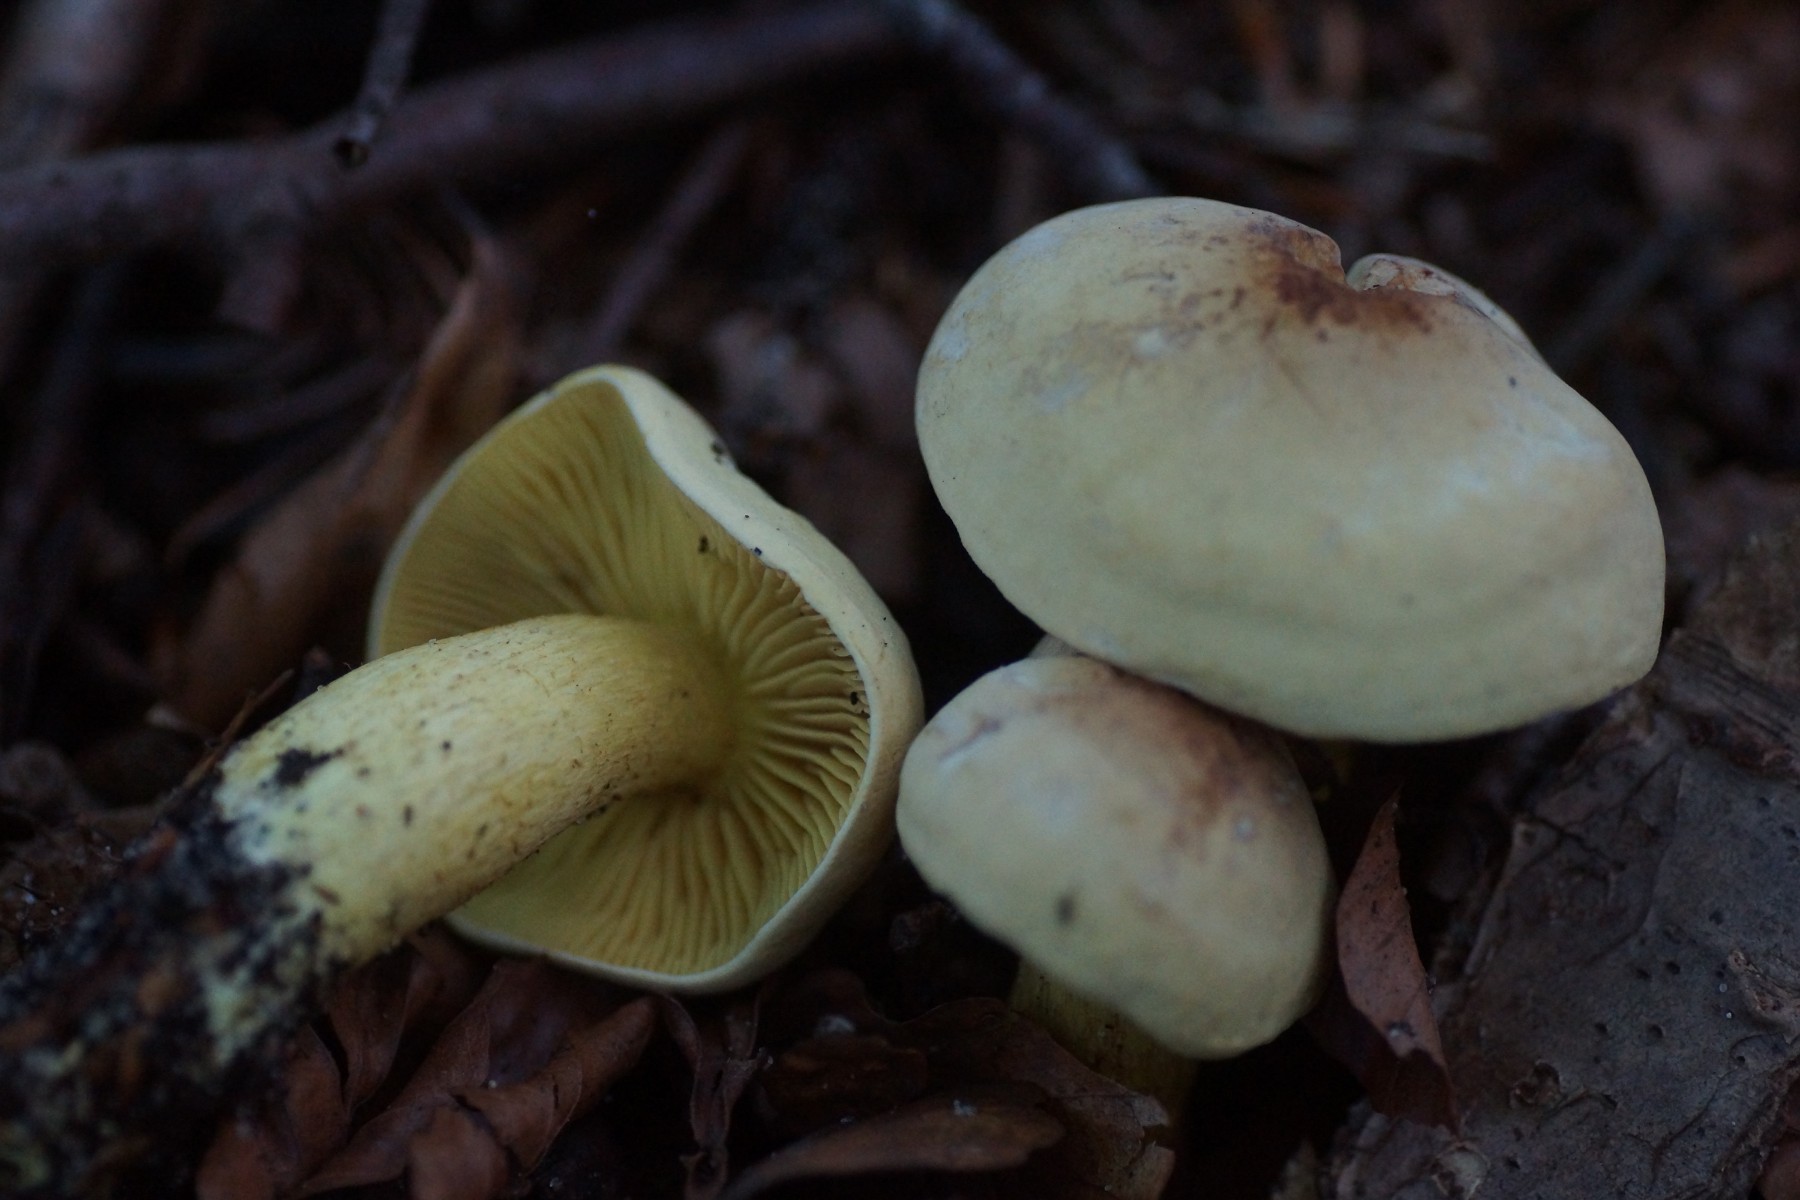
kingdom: Fungi
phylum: Basidiomycota
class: Agaricomycetes
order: Agaricales
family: Tricholomataceae
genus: Tricholoma
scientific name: Tricholoma sulphureum
